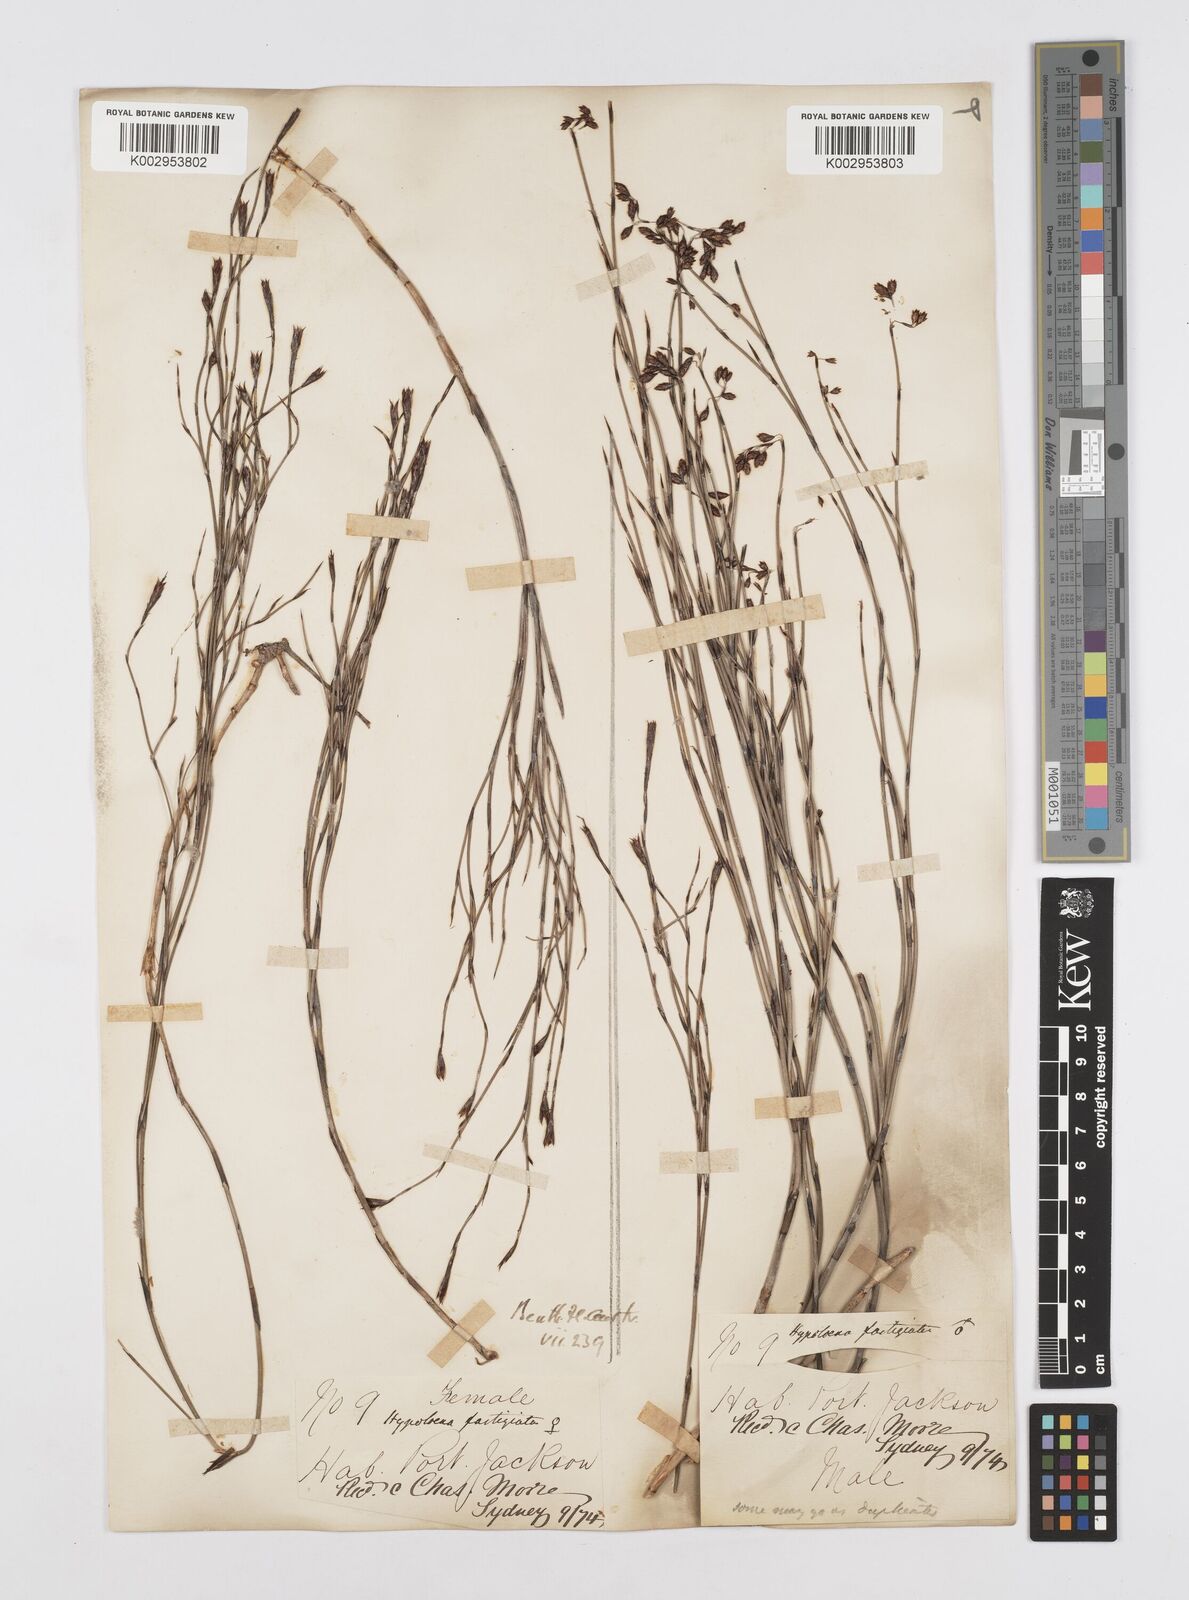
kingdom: Plantae
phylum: Tracheophyta
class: Liliopsida
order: Poales
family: Restionaceae
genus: Hypolaena
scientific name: Hypolaena fastigiata
